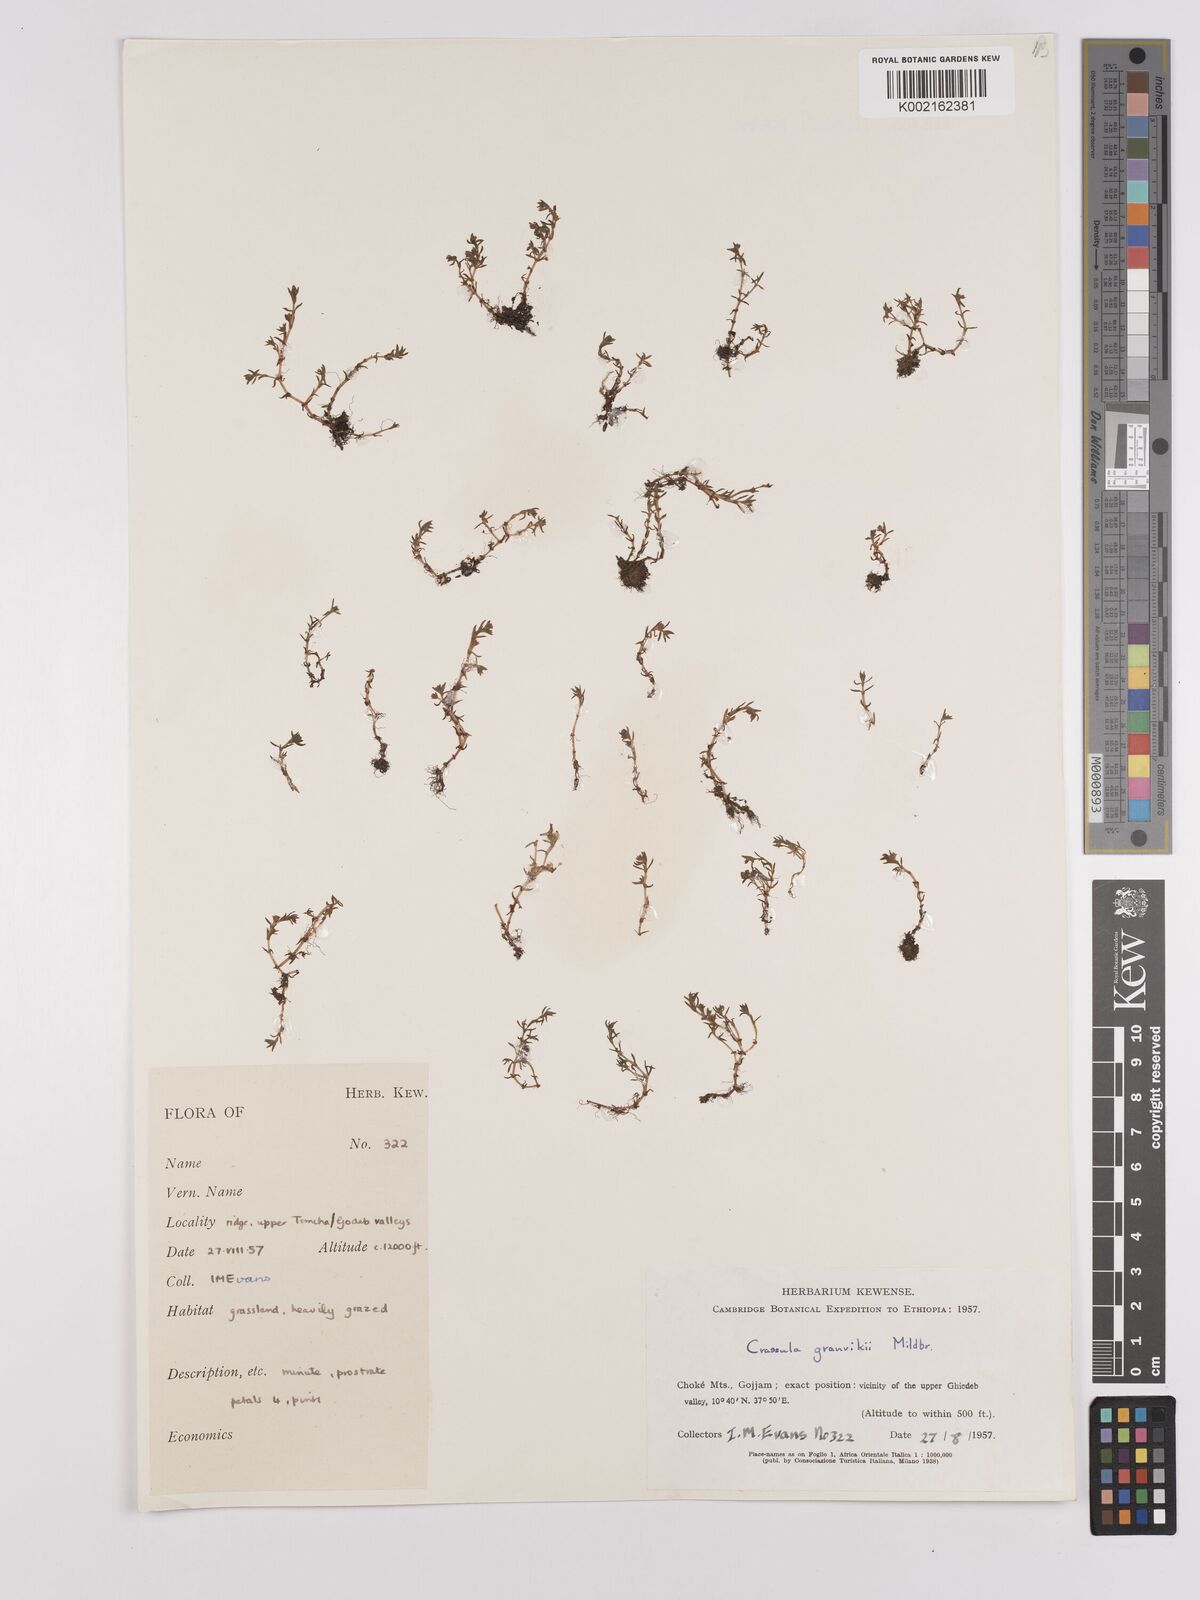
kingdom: Plantae
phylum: Tracheophyta
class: Magnoliopsida
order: Saxifragales
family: Crassulaceae
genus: Crassula
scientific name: Crassula granvikii
